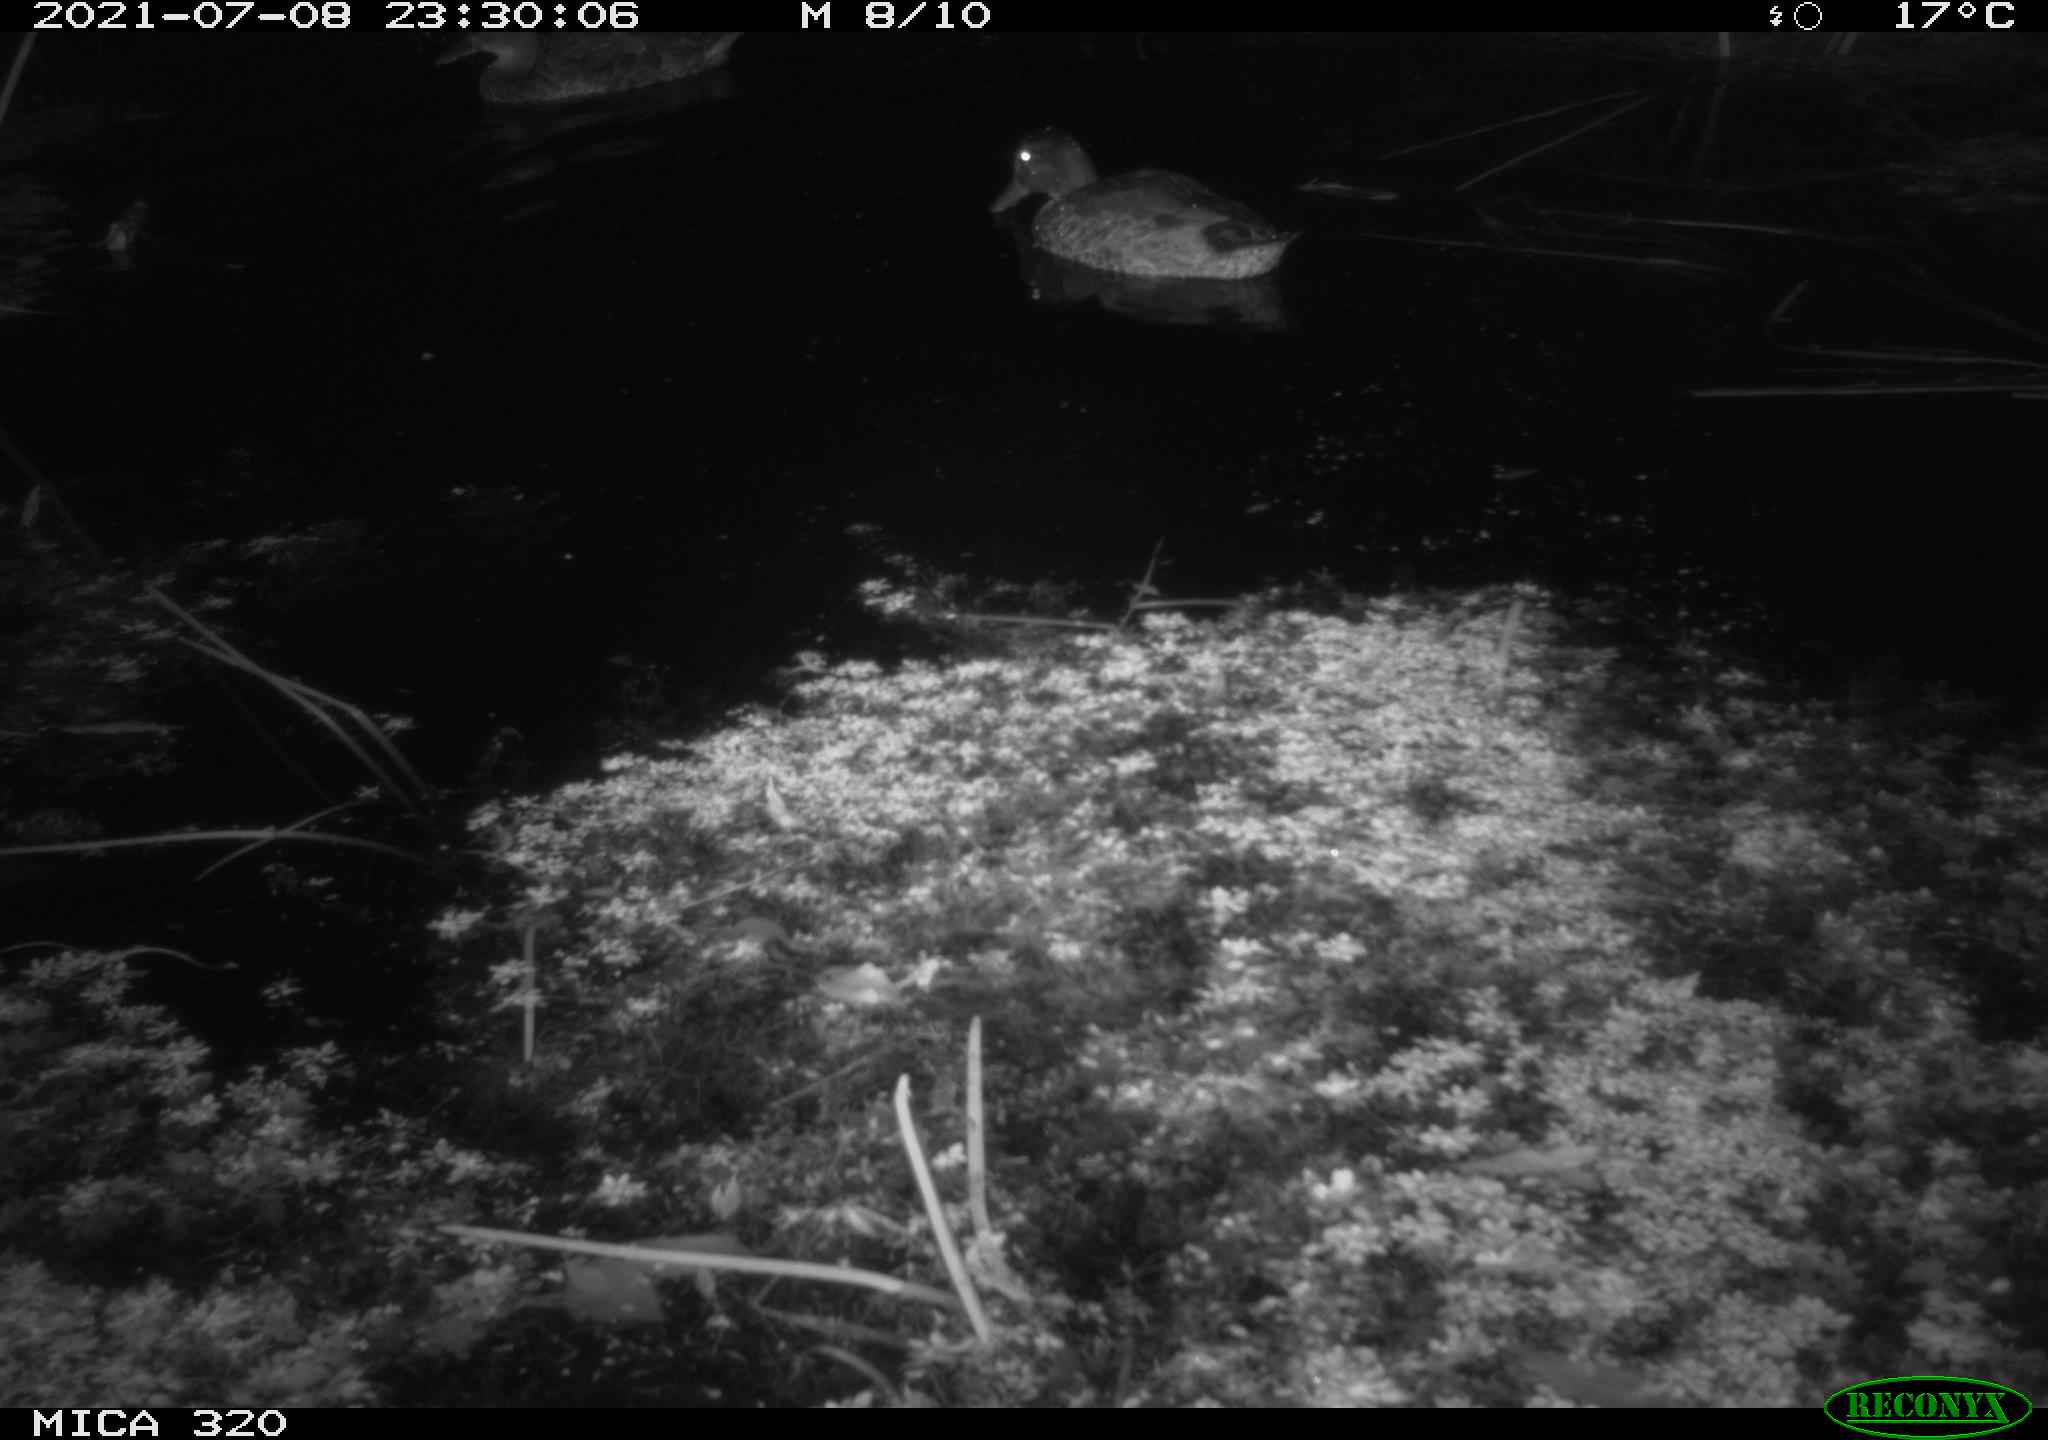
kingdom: Animalia
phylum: Chordata
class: Aves
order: Anseriformes
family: Anatidae
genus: Anas
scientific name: Anas platyrhynchos
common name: Mallard
